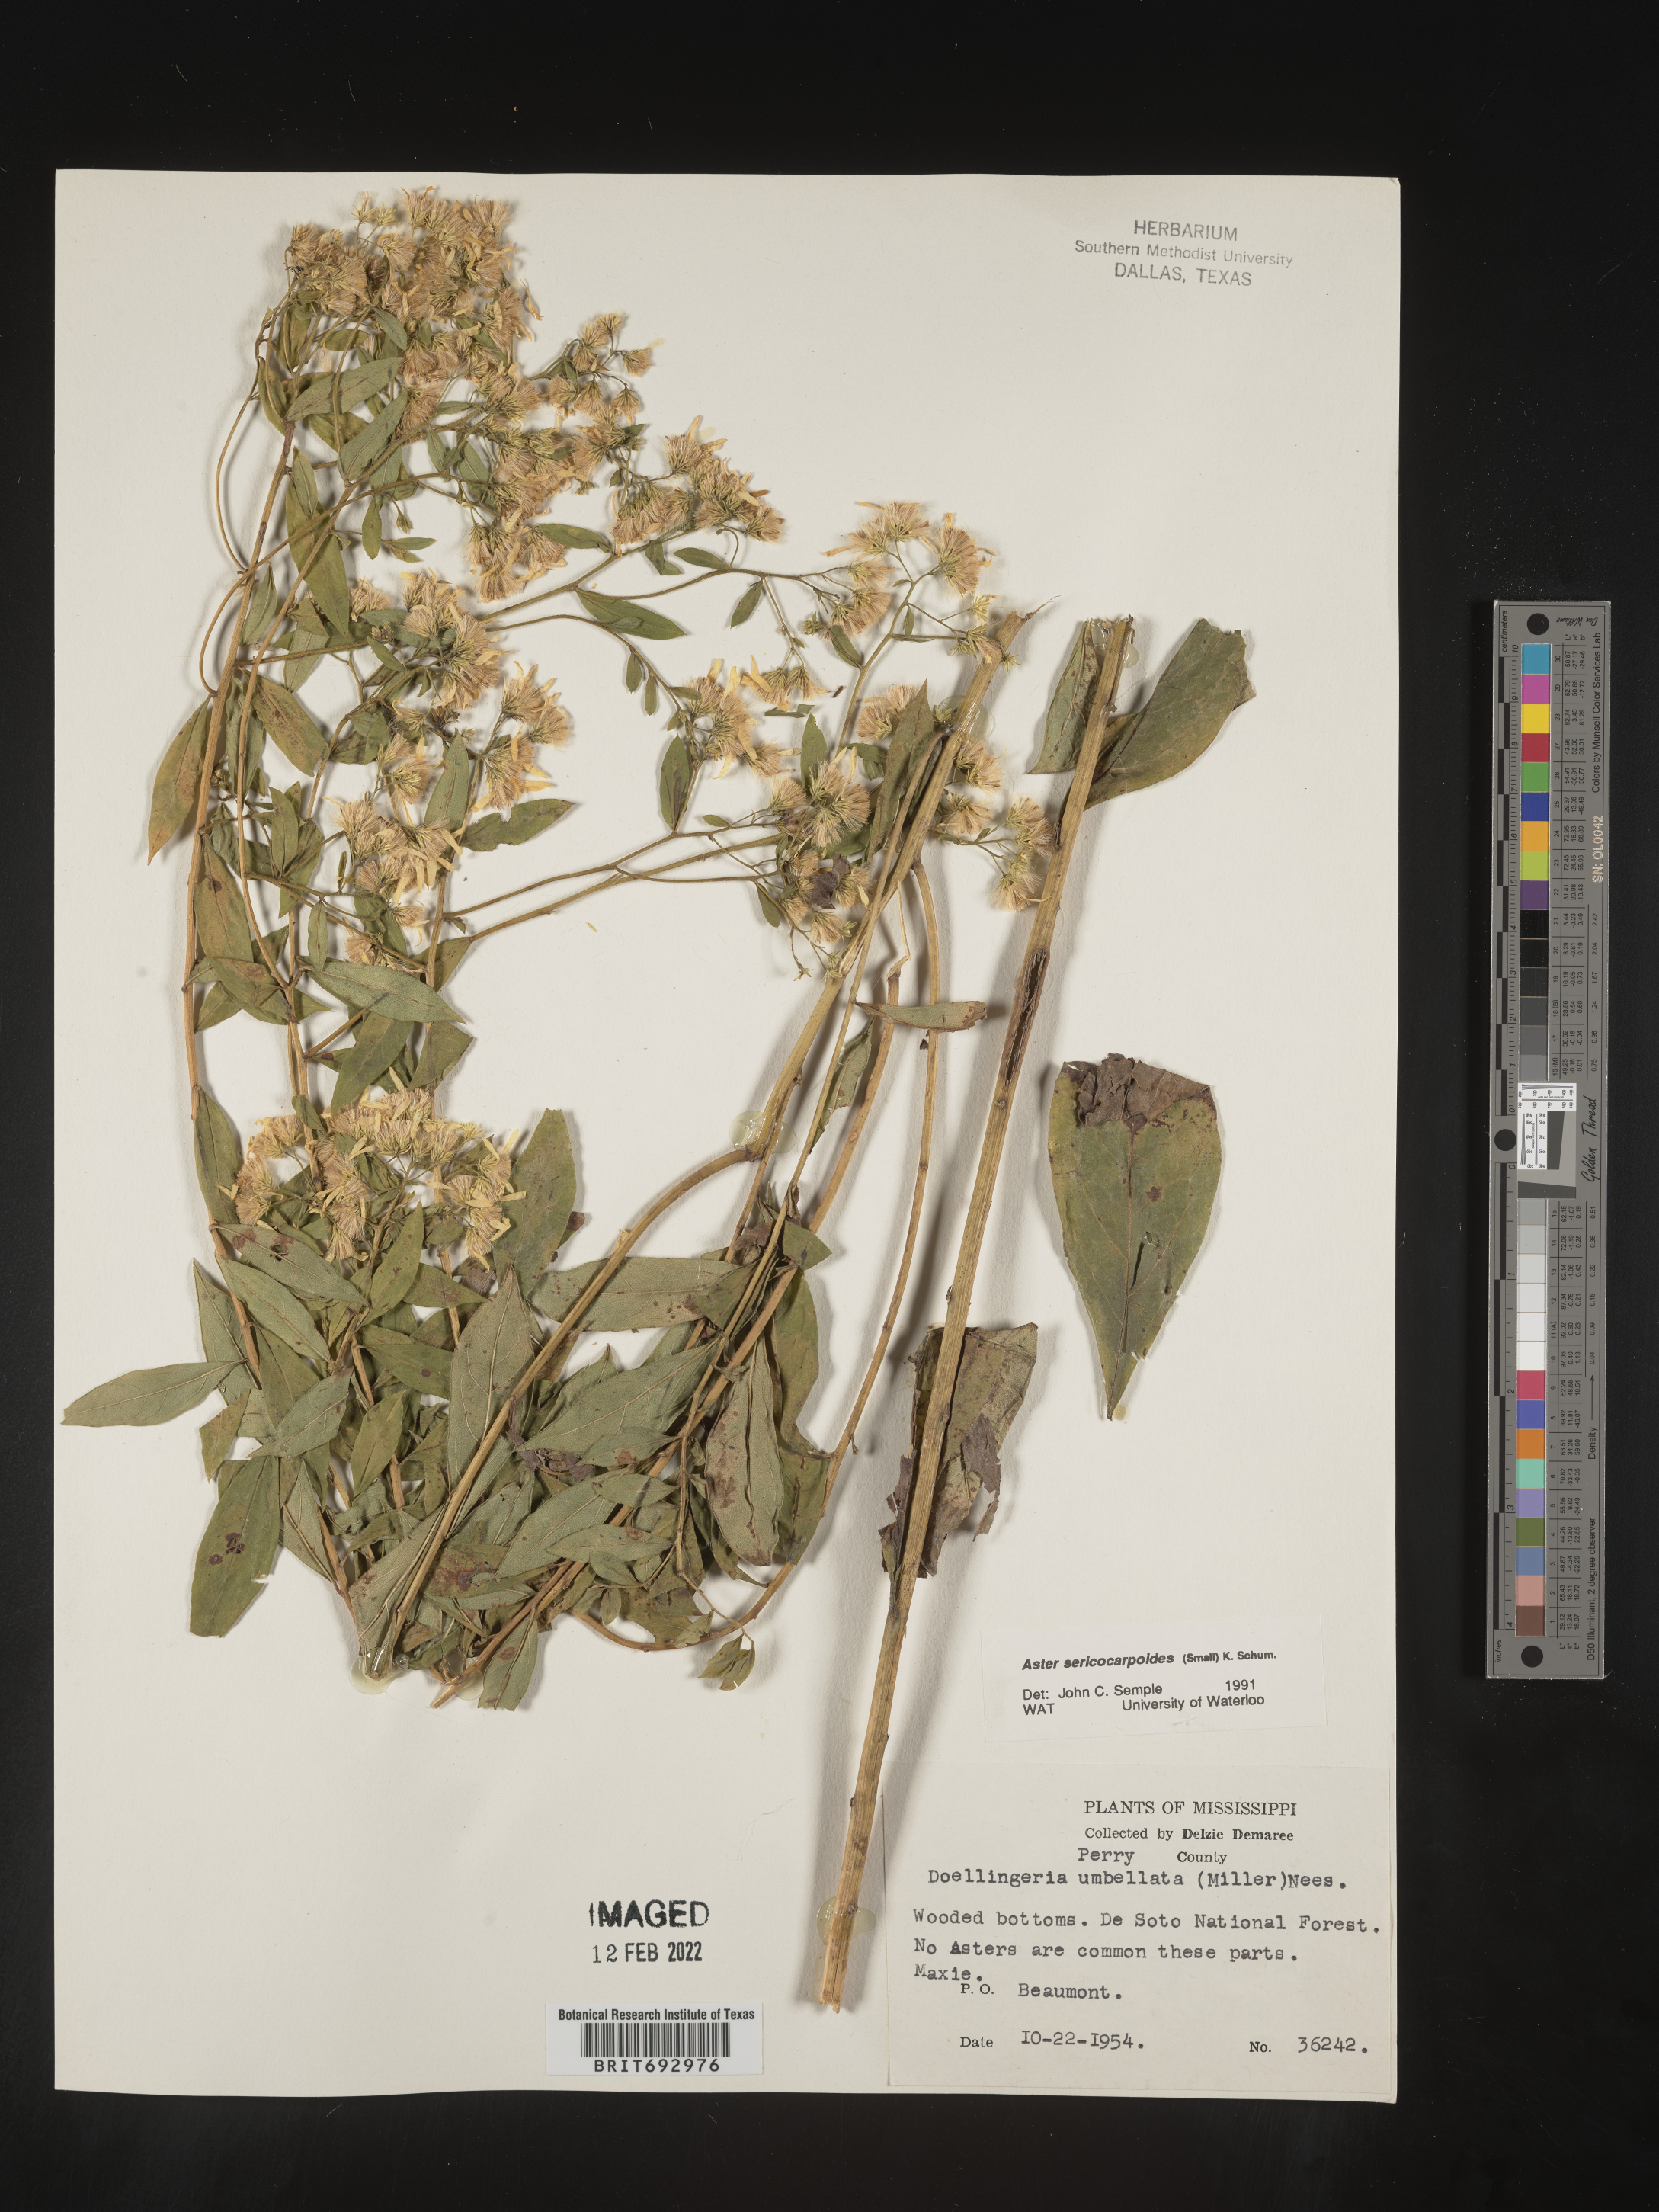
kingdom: Plantae
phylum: Tracheophyta
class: Magnoliopsida
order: Asterales
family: Asteraceae
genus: Doellingeria
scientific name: Doellingeria sericocarpoides
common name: Southern tall flat-top aster
